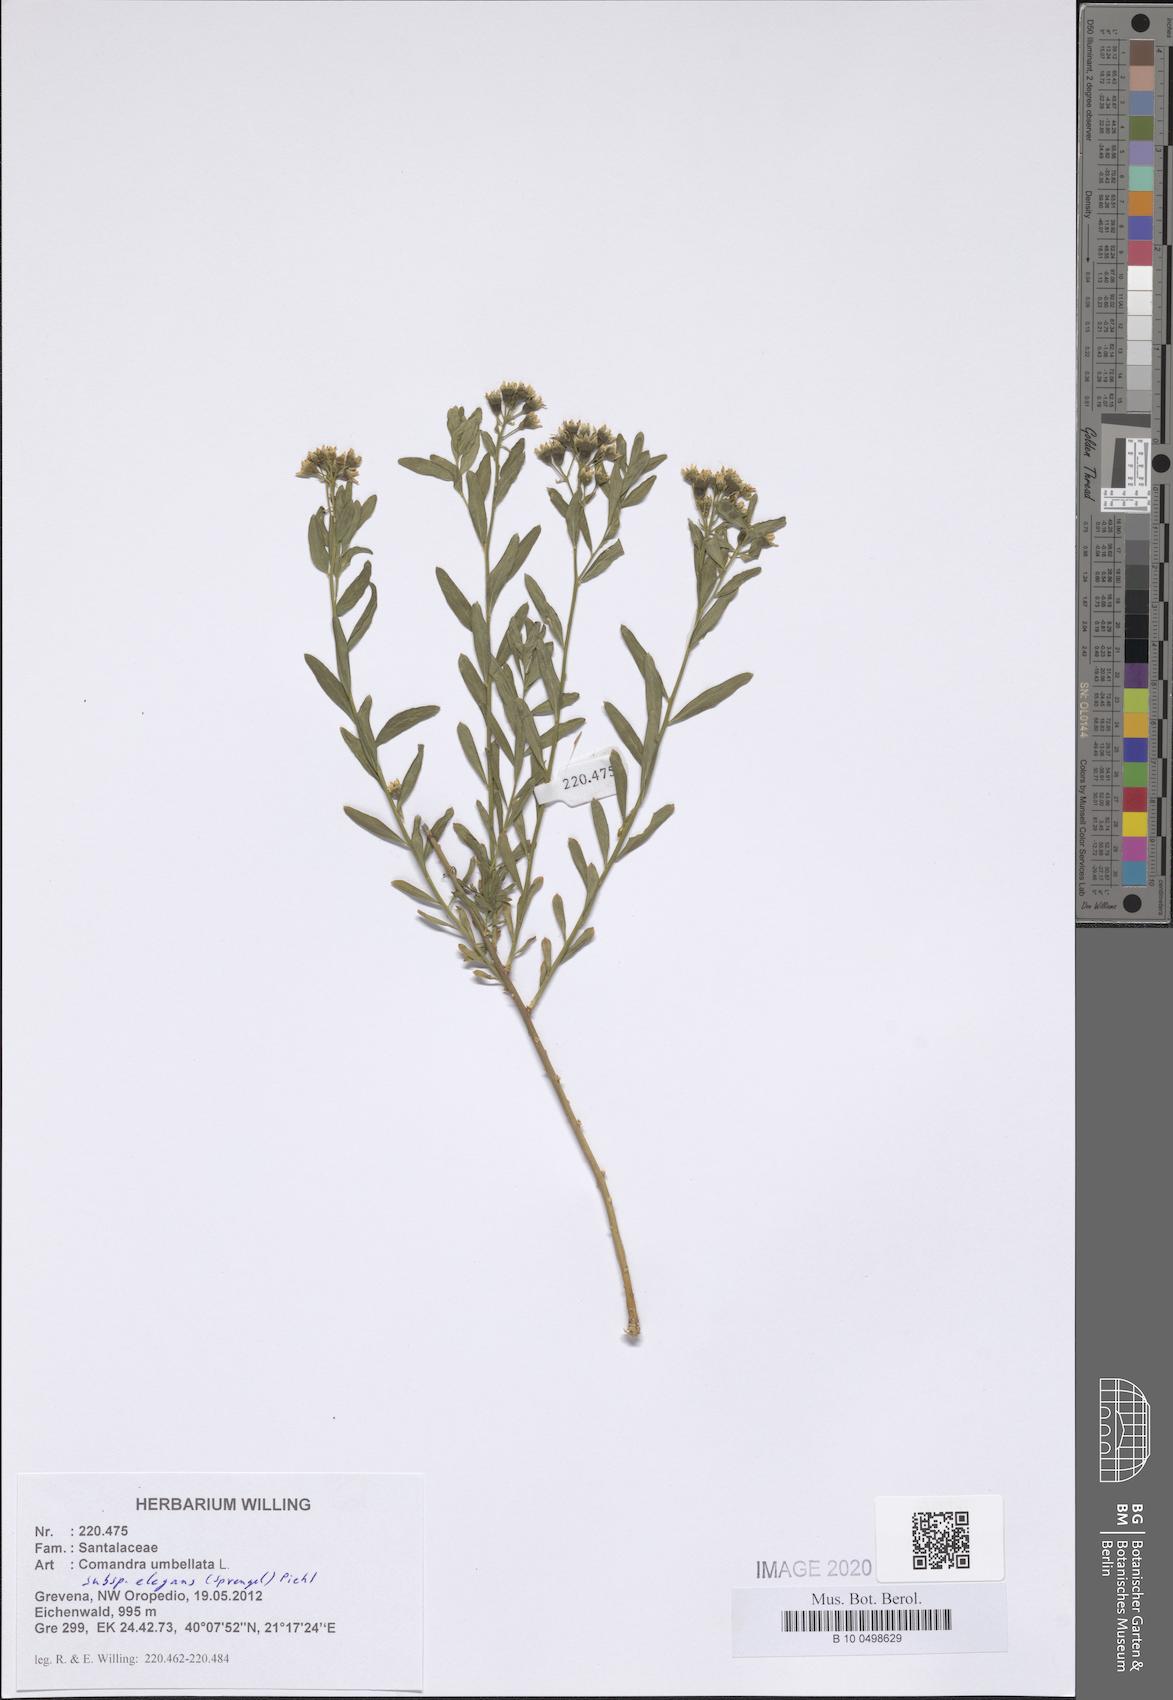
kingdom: Plantae
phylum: Tracheophyta
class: Magnoliopsida
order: Santalales
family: Comandraceae
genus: Comandra
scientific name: Comandra umbellata
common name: Bastard toadflax
